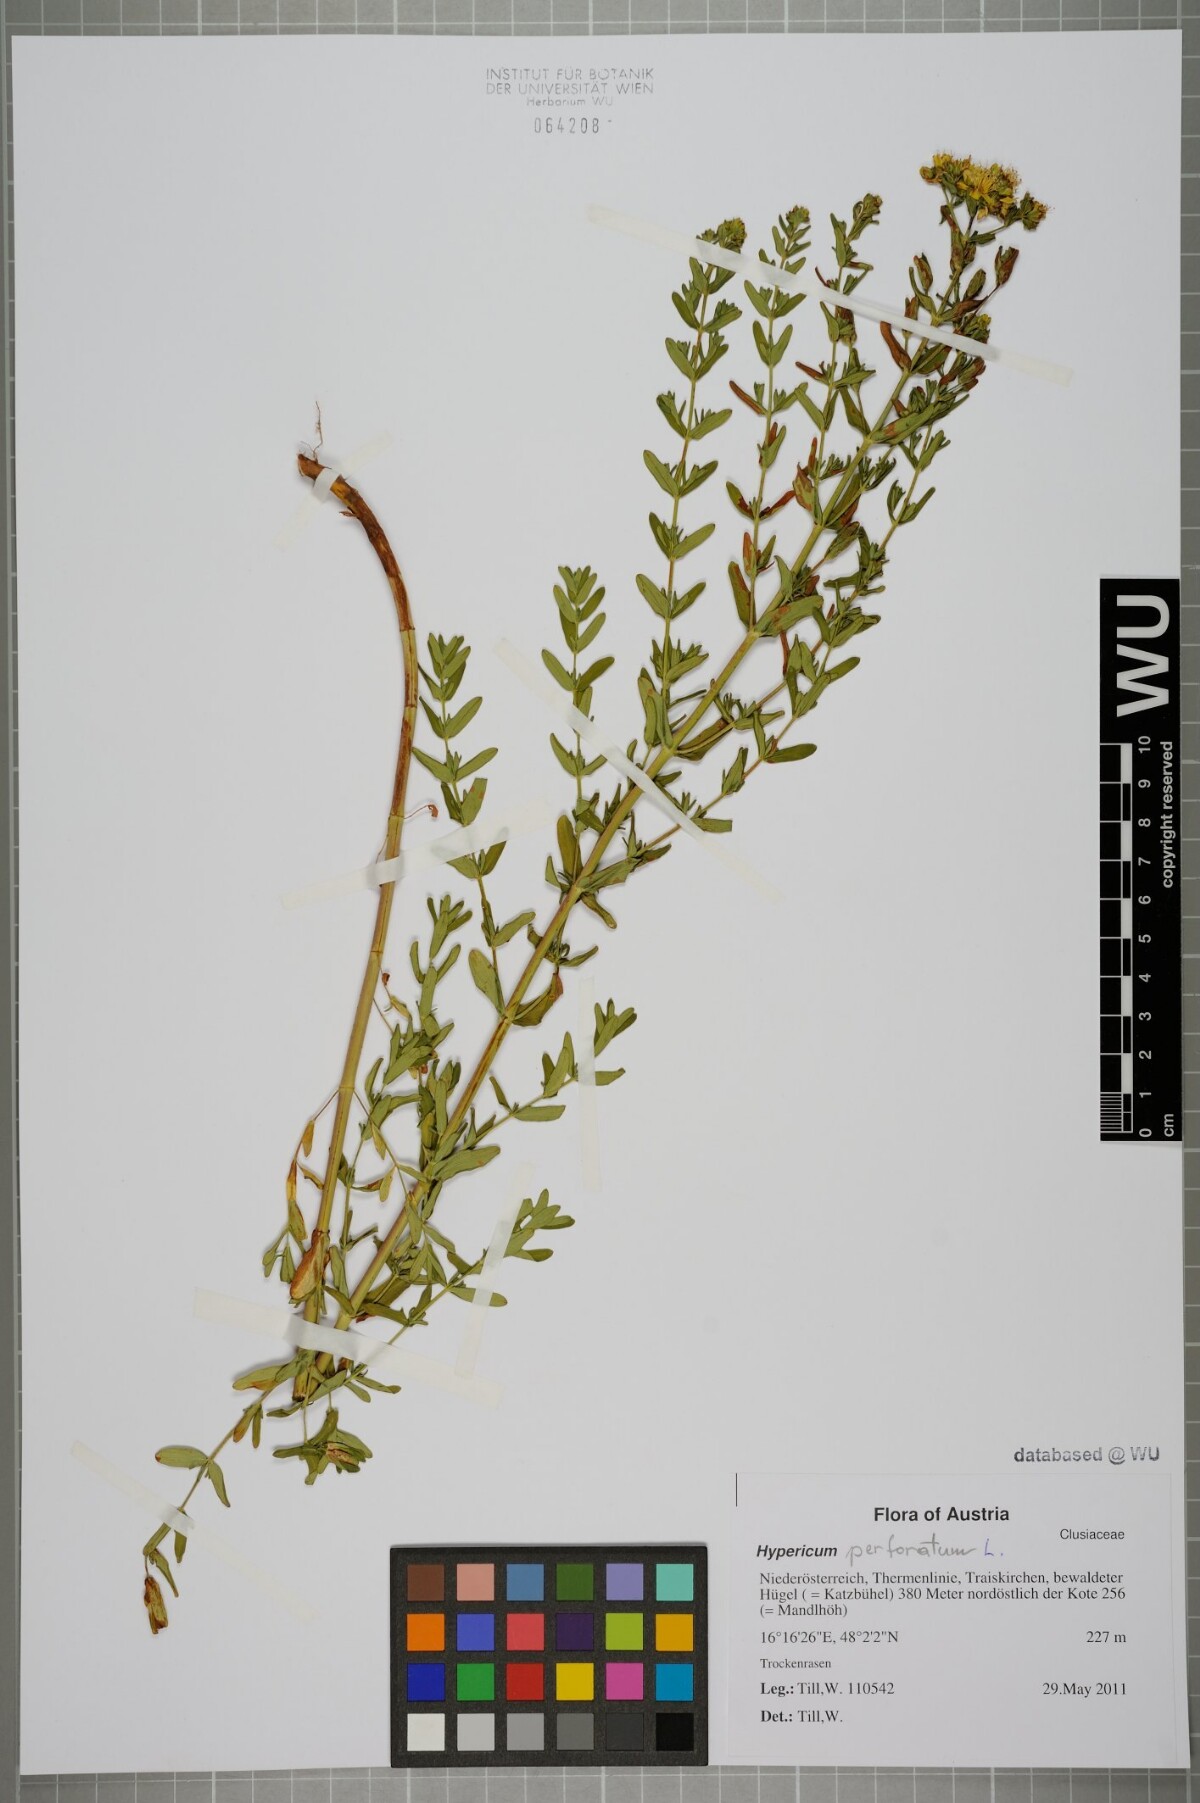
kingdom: Plantae
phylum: Tracheophyta
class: Magnoliopsida
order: Malpighiales
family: Hypericaceae
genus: Hypericum
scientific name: Hypericum perforatum
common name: Common st. johnswort
